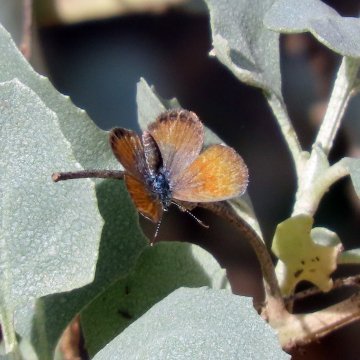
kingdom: Animalia
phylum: Arthropoda
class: Insecta
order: Lepidoptera
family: Lycaenidae
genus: Brephidium
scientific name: Brephidium exilis
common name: Western Pygmy-Blue
